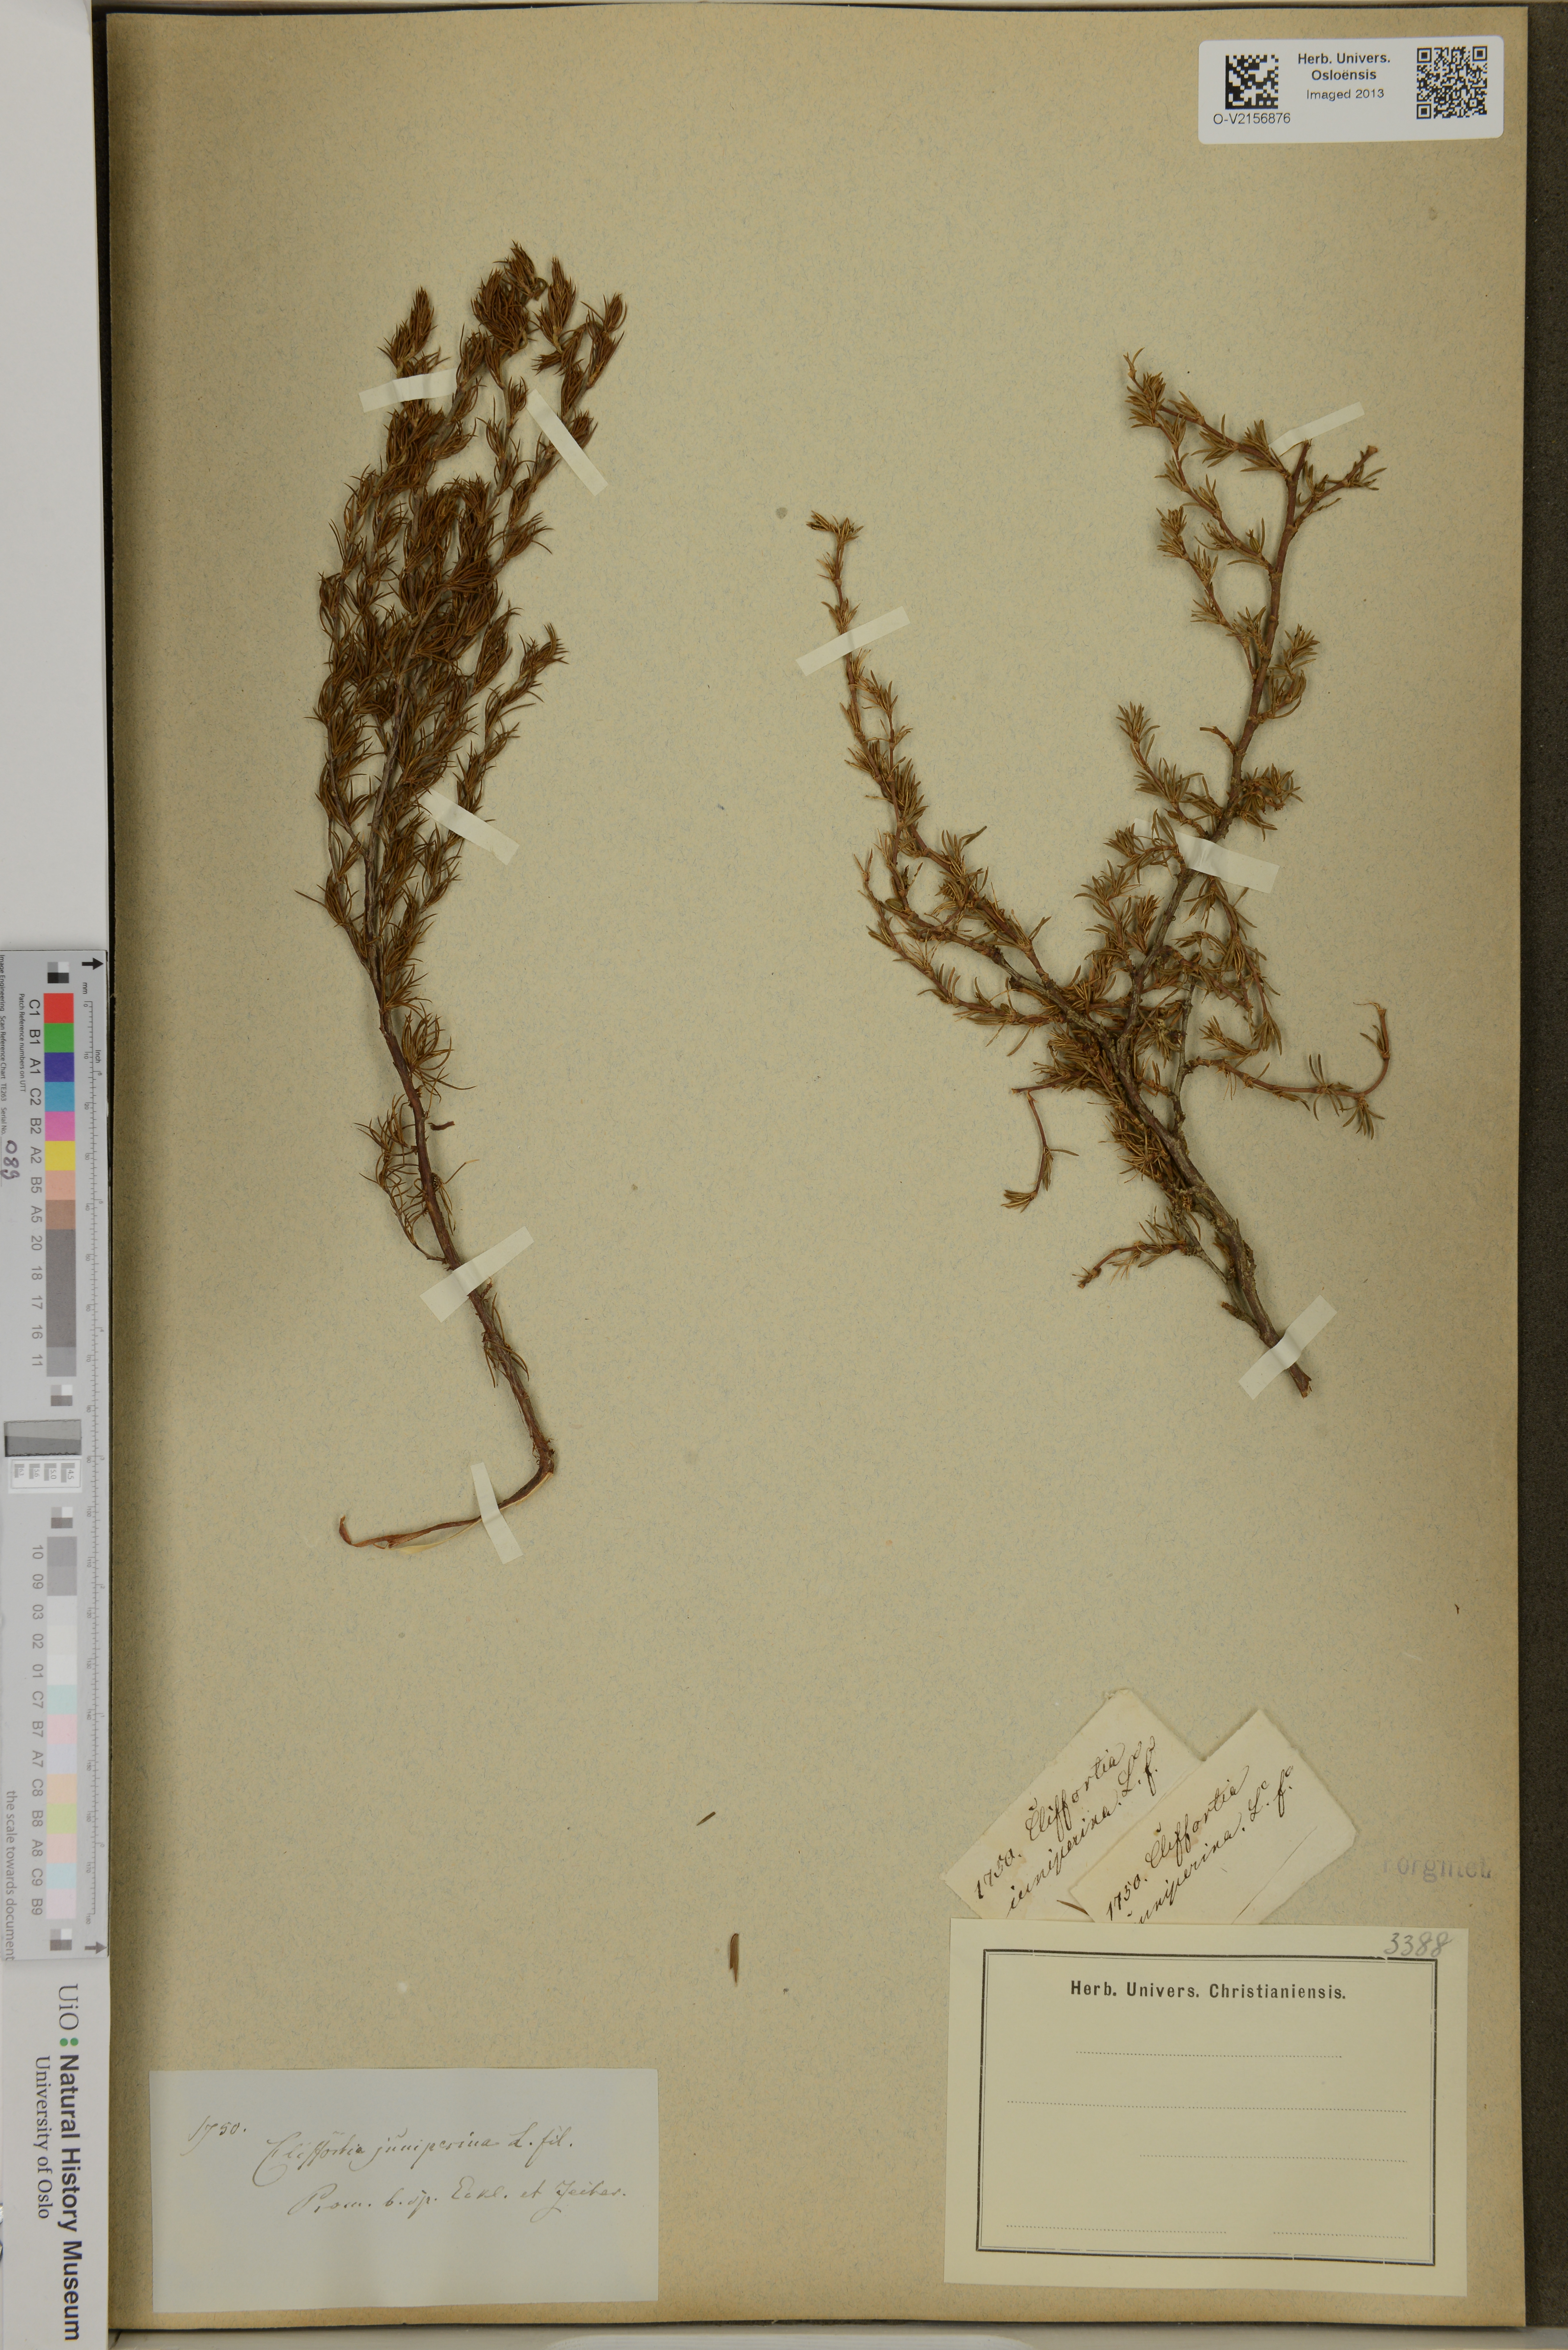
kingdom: Plantae
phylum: Tracheophyta
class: Magnoliopsida
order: Rosales
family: Rosaceae
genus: Cliffortia
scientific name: Cliffortia juniperina
